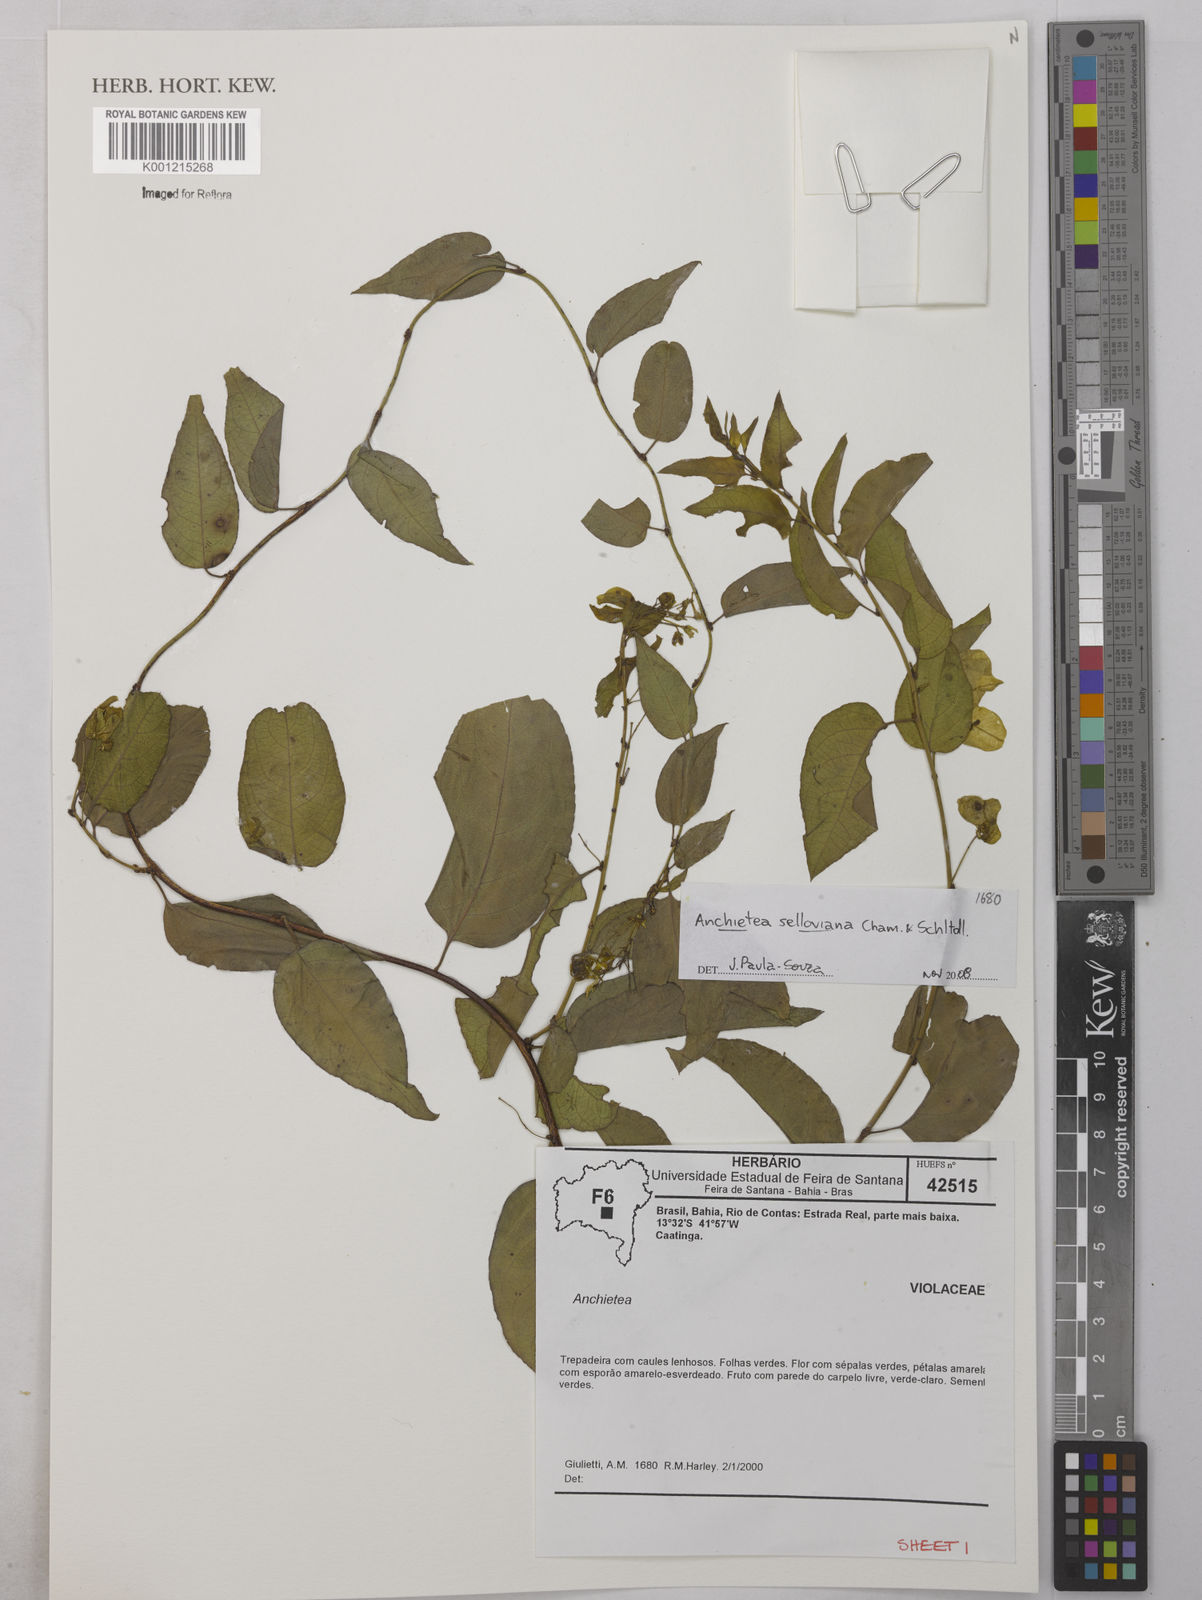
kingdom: Plantae
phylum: Tracheophyta
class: Magnoliopsida
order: Malpighiales
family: Violaceae
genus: Anchietea
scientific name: Anchietea sellowiana
